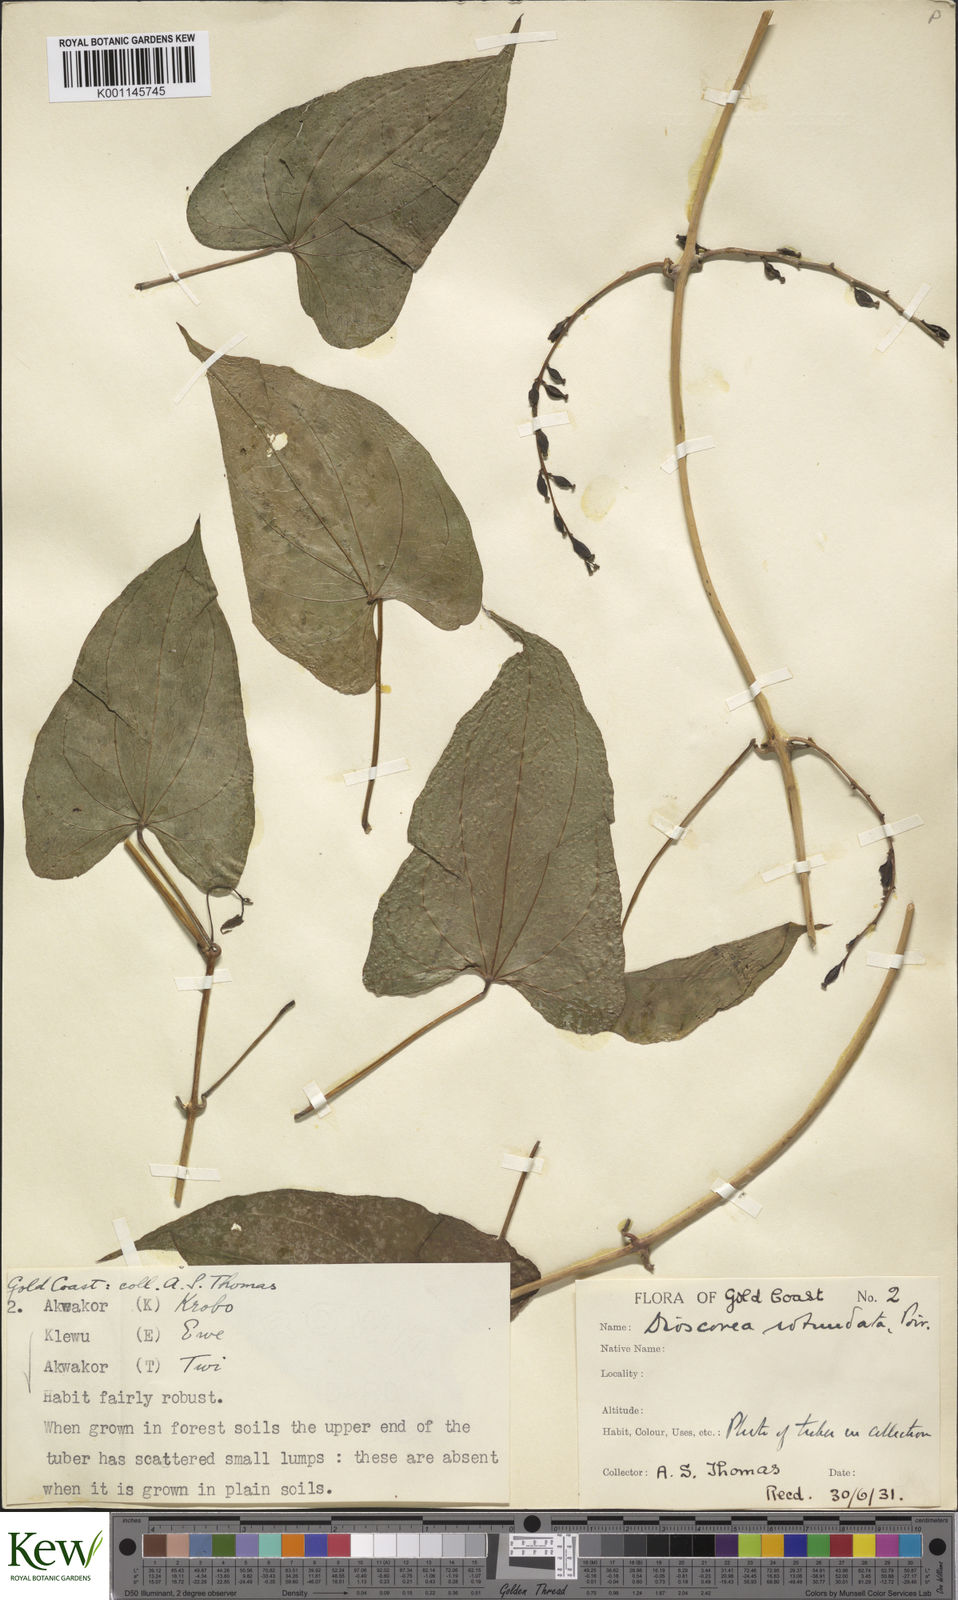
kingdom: Plantae
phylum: Tracheophyta
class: Liliopsida
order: Dioscoreales
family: Dioscoreaceae
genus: Dioscorea
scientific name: Dioscorea cayenensis
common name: Attoto yam
